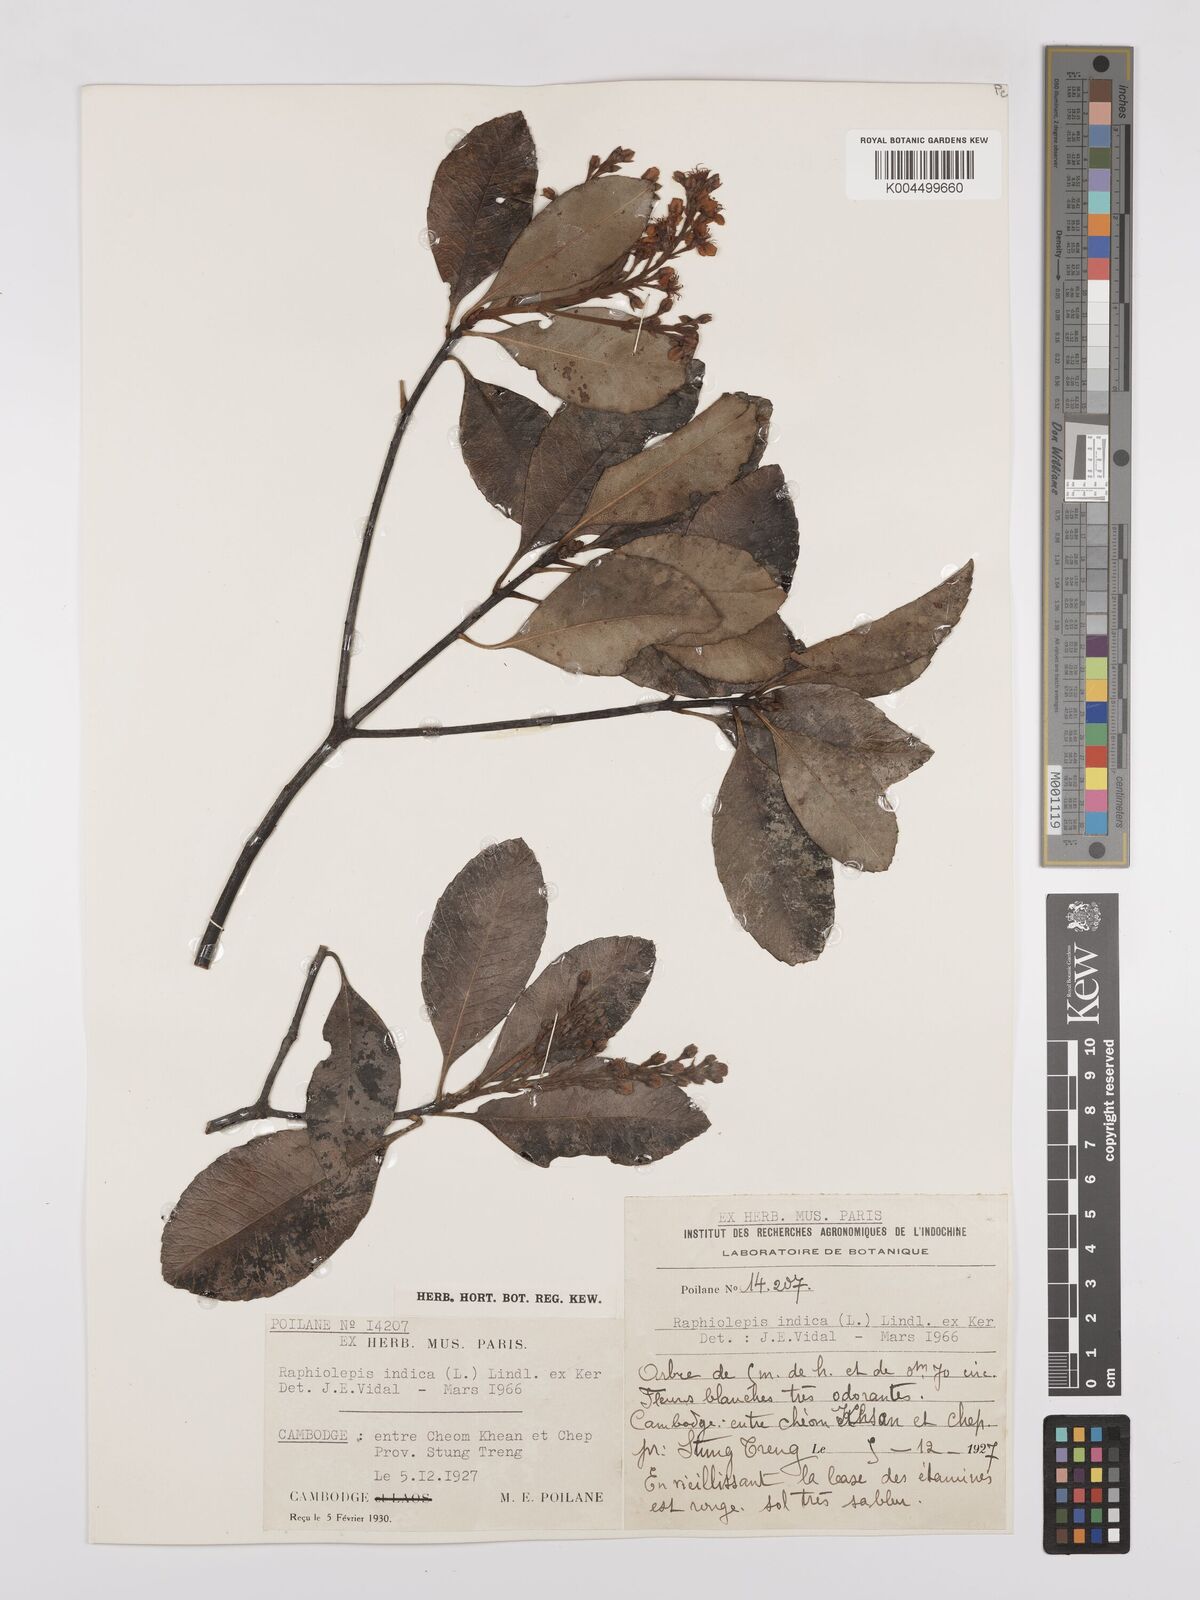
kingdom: Plantae
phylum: Tracheophyta
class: Magnoliopsida
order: Rosales
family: Rosaceae
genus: Rhaphiolepis
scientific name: Rhaphiolepis indica
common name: India-hawthorn
